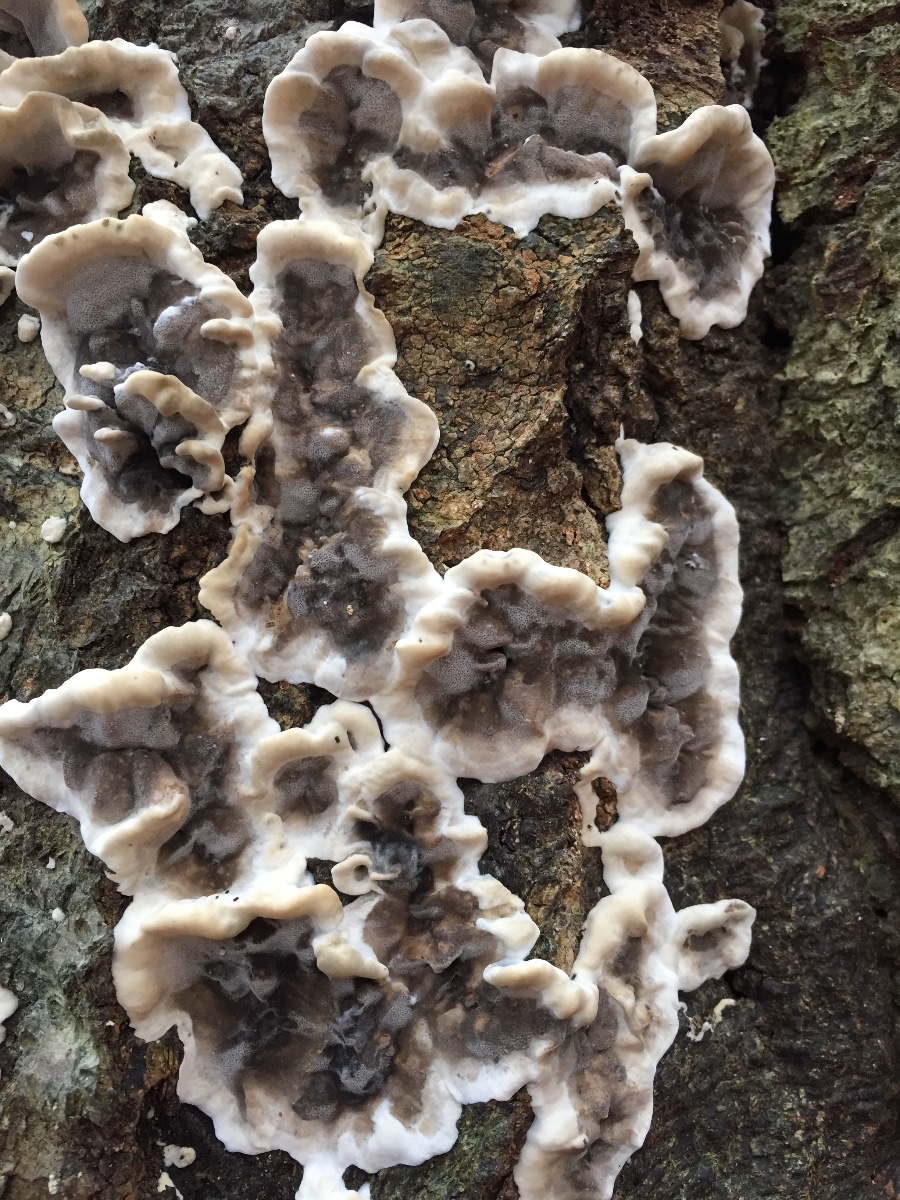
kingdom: Fungi
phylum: Basidiomycota
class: Agaricomycetes
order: Polyporales
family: Phanerochaetaceae
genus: Bjerkandera
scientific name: Bjerkandera adusta
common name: sveden sodporesvamp
